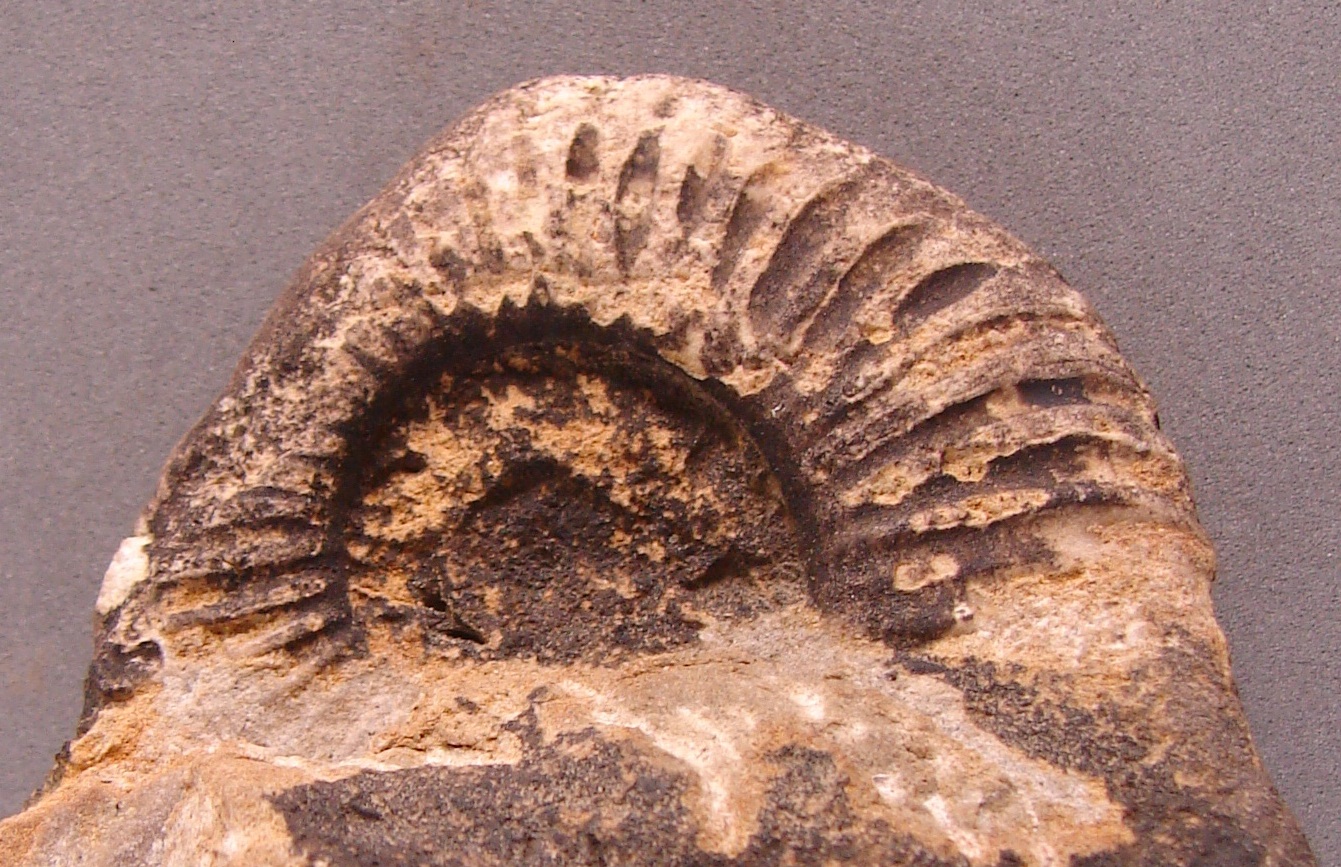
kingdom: Animalia
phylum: Mollusca
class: Cephalopoda
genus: Ammonites
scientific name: Ammonites angulatus
